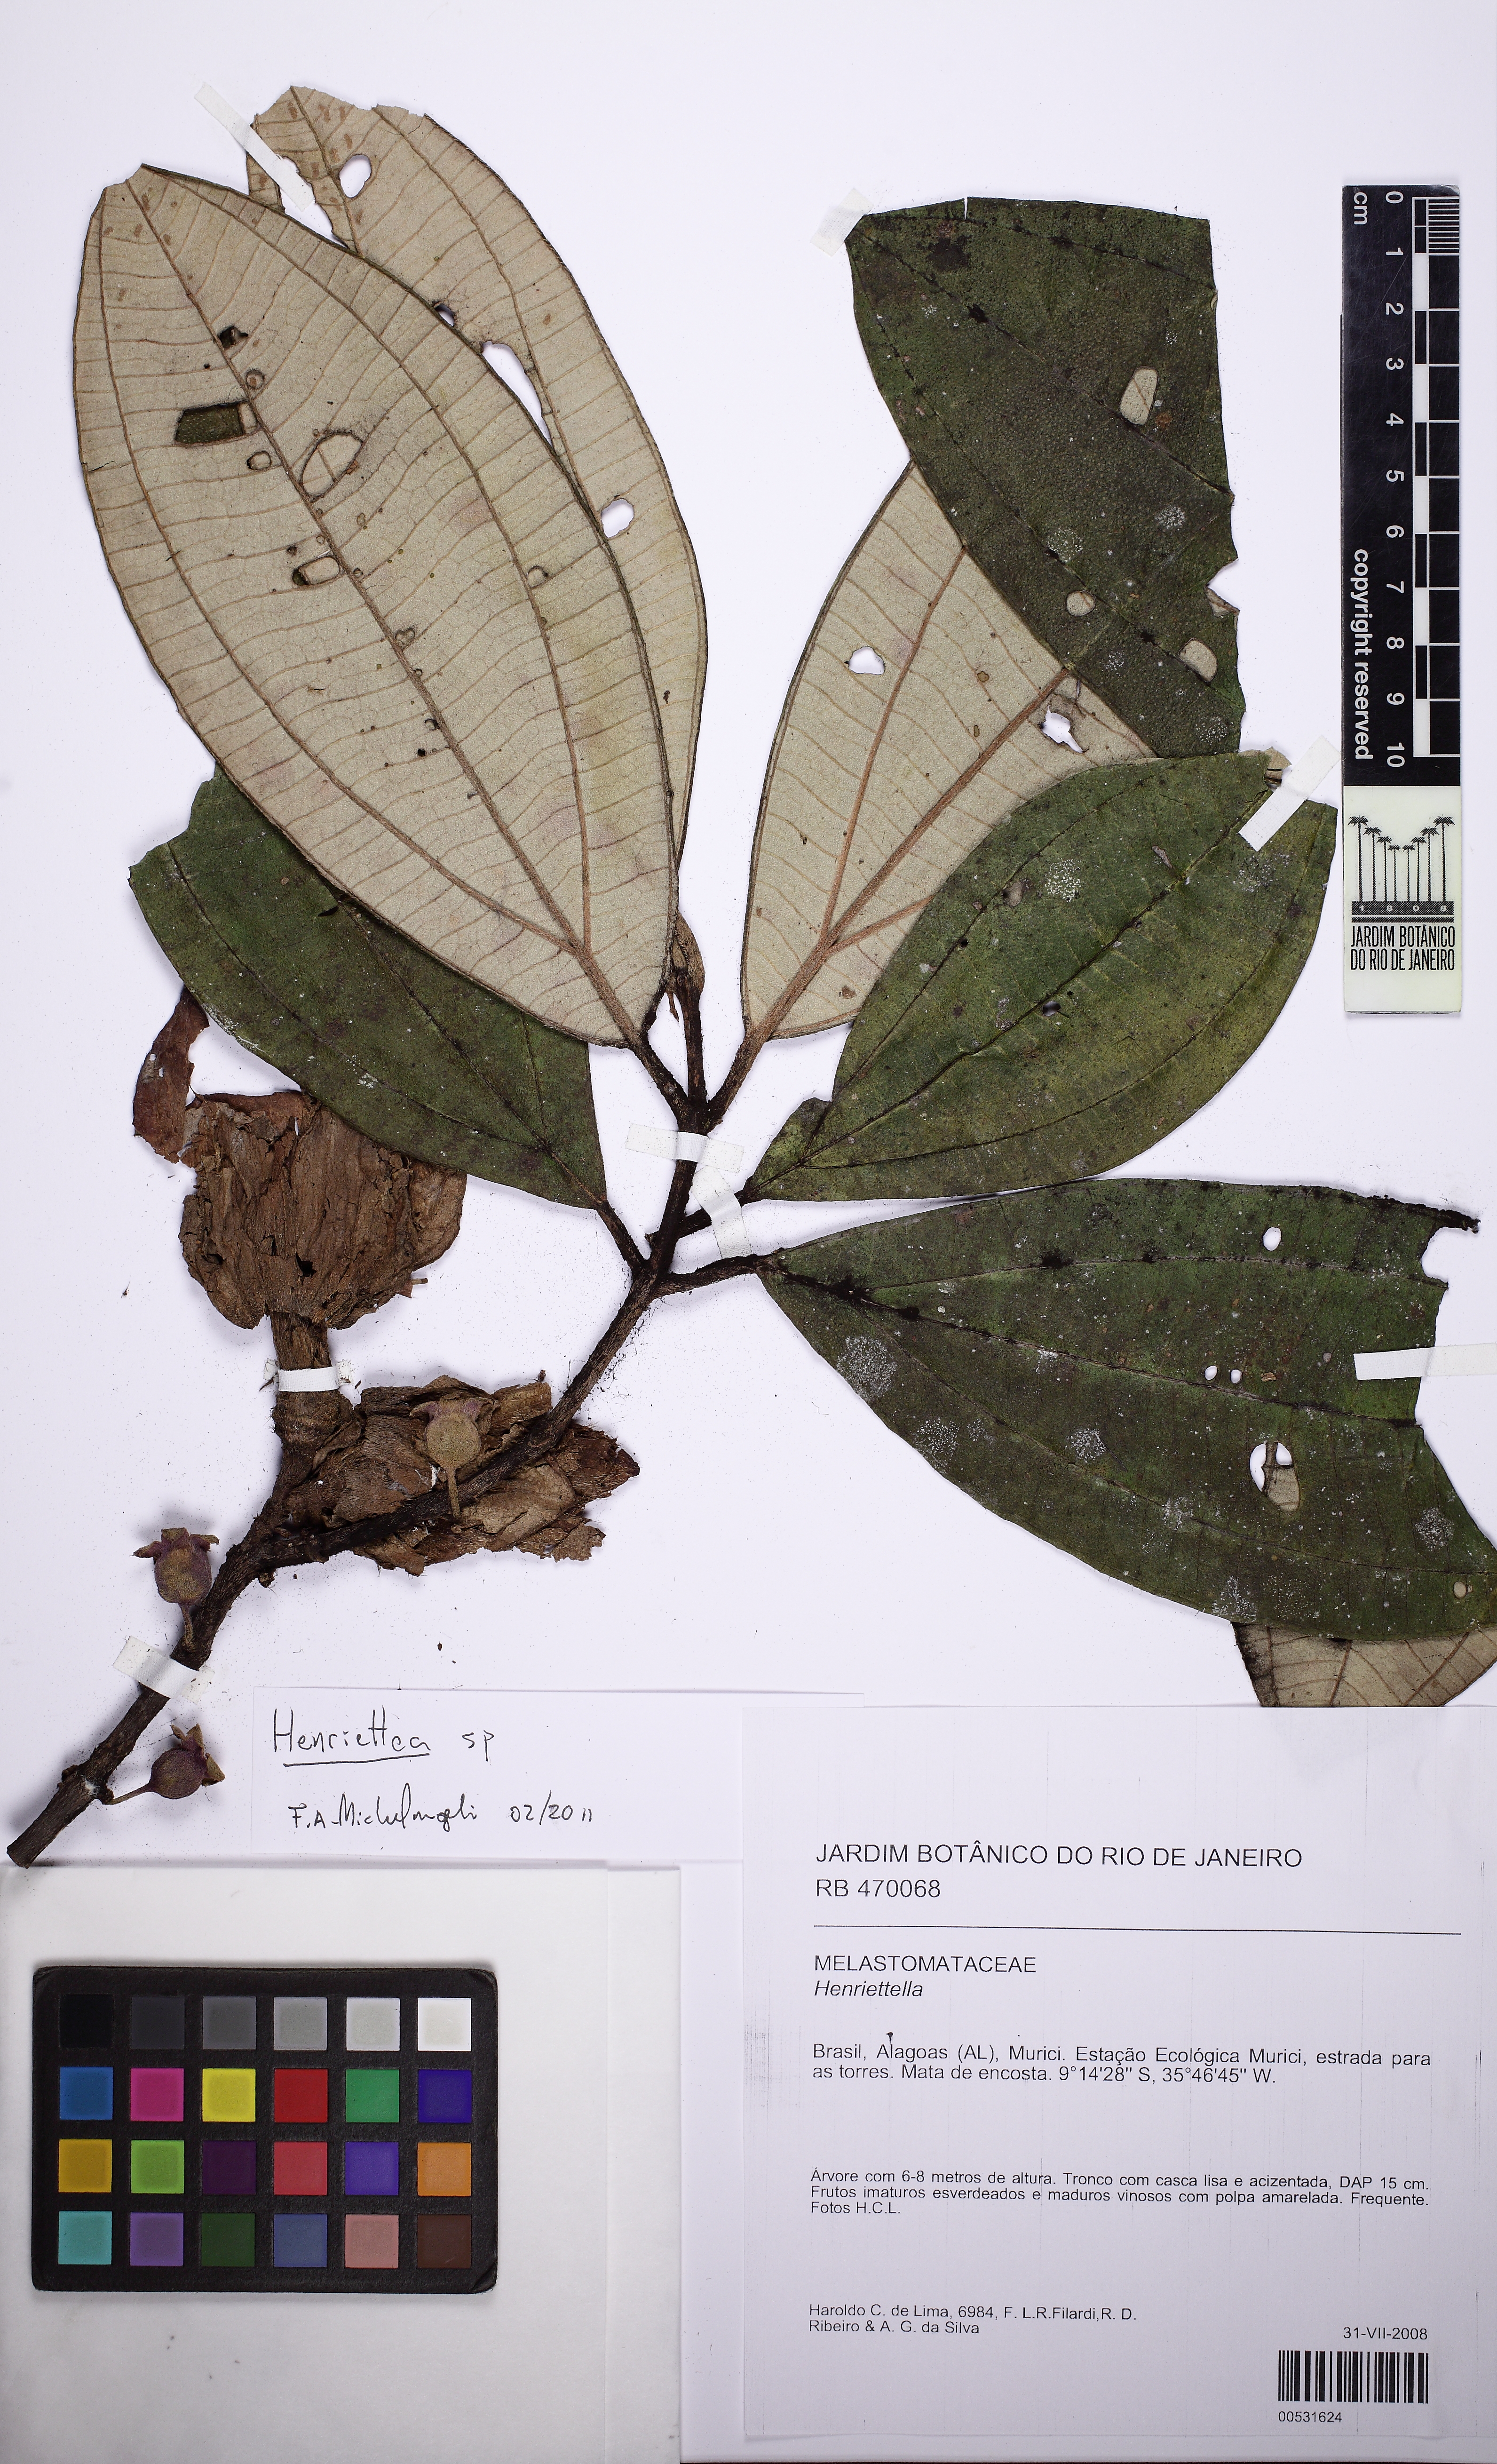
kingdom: Plantae
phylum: Tracheophyta
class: Magnoliopsida
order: Myrtales
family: Melastomataceae
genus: Henriettea
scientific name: Henriettea
